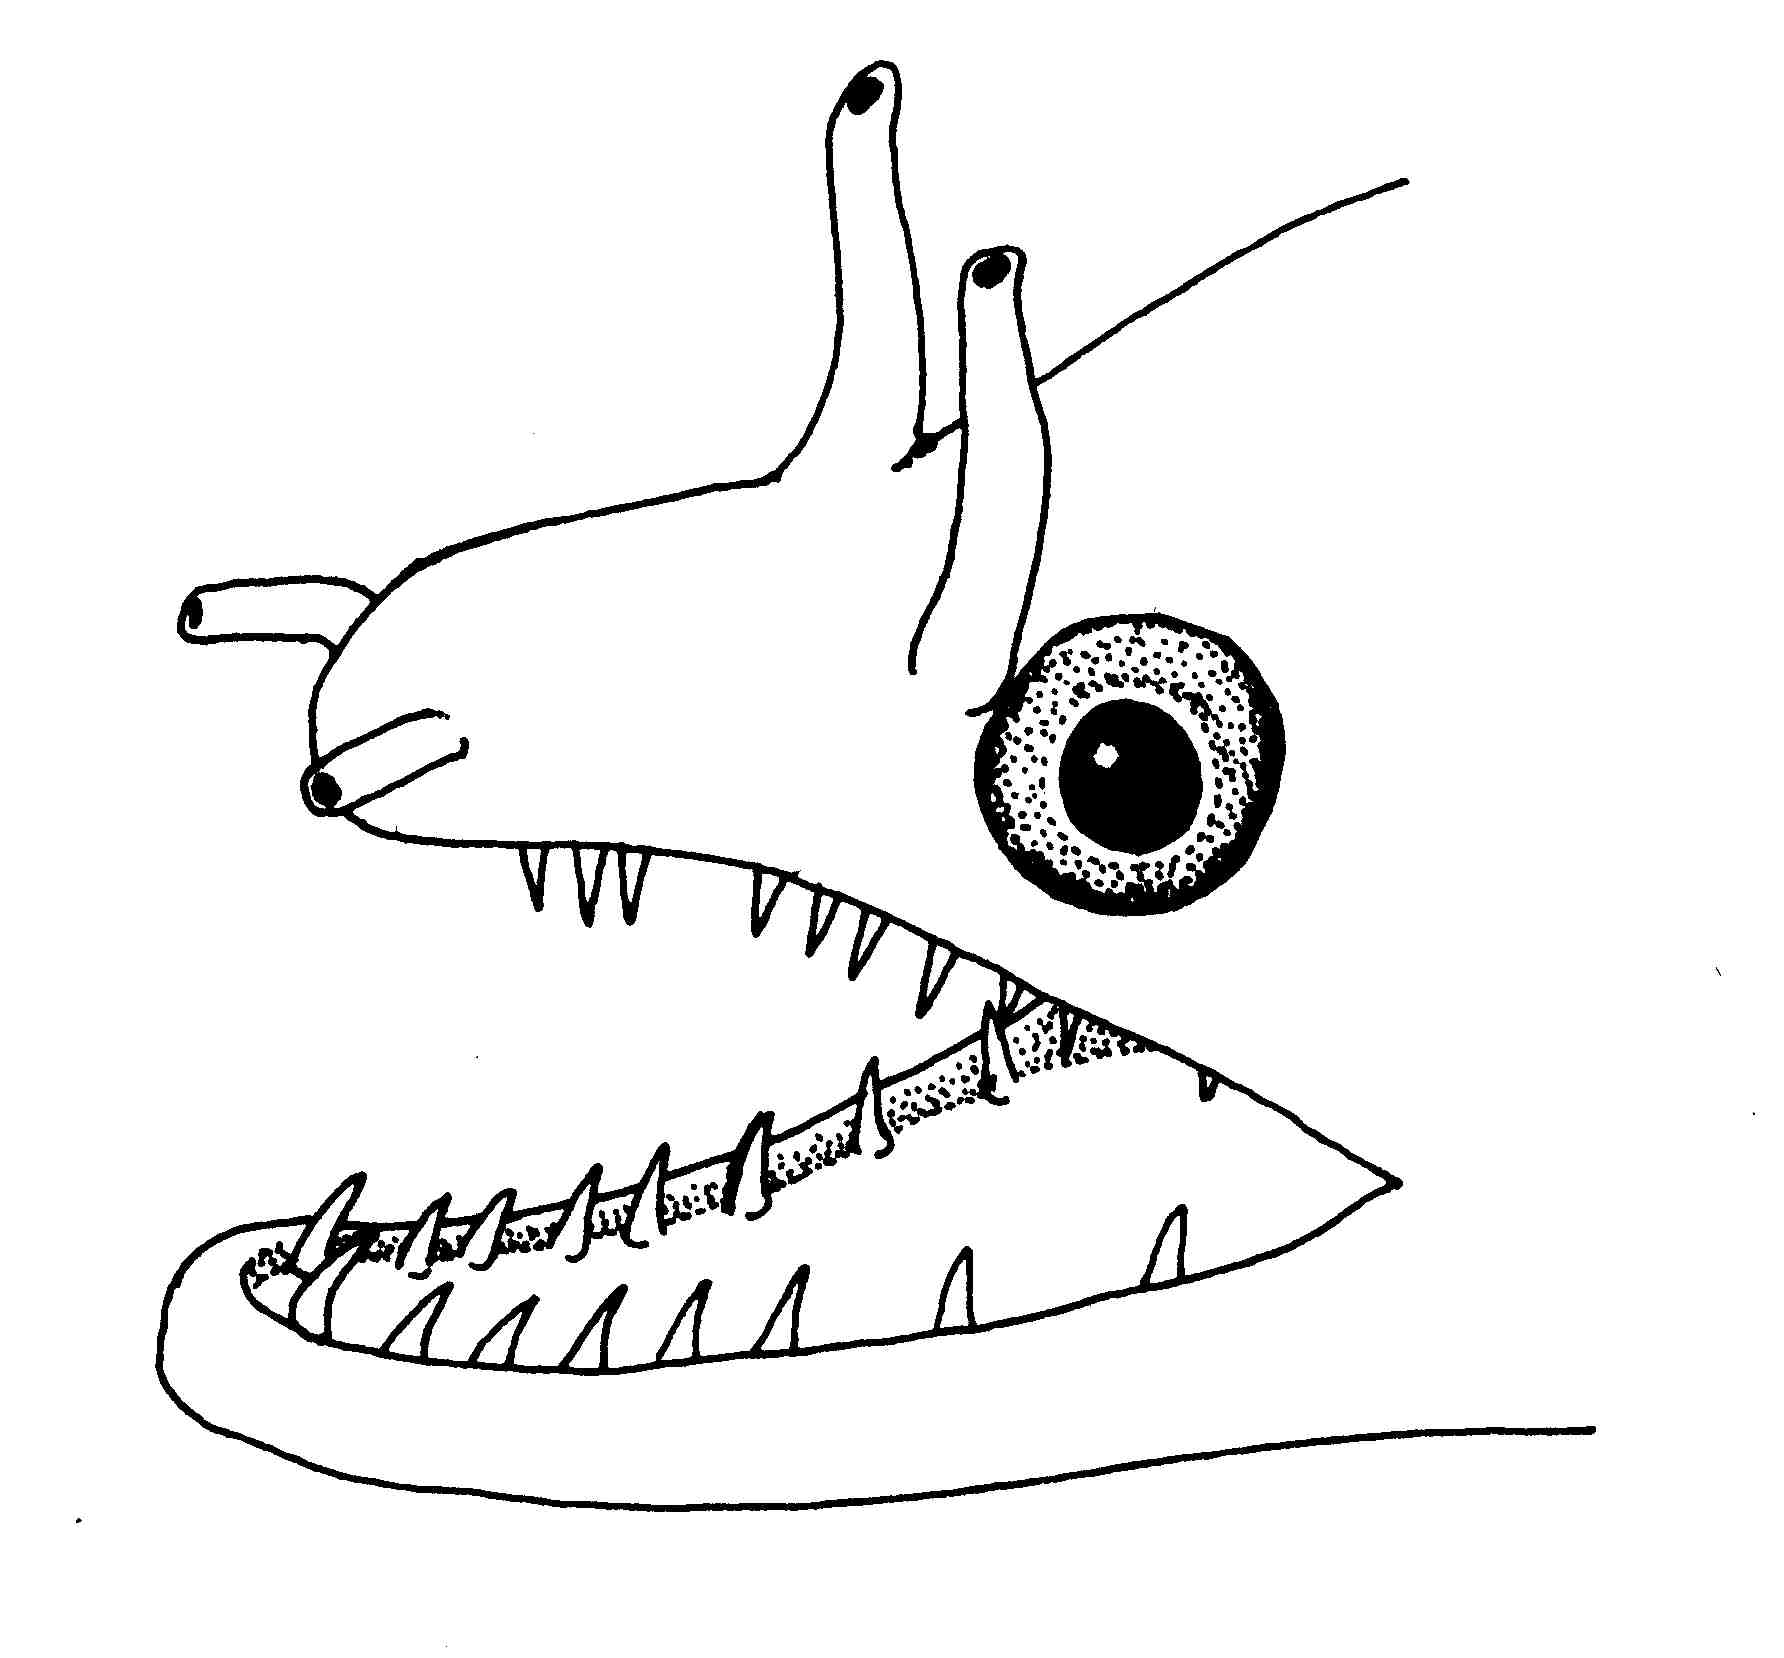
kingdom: Animalia
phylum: Chordata
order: Anguilliformes
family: Muraenidae
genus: Enchelycore
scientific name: Enchelycore pardalis
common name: Dragon moray
